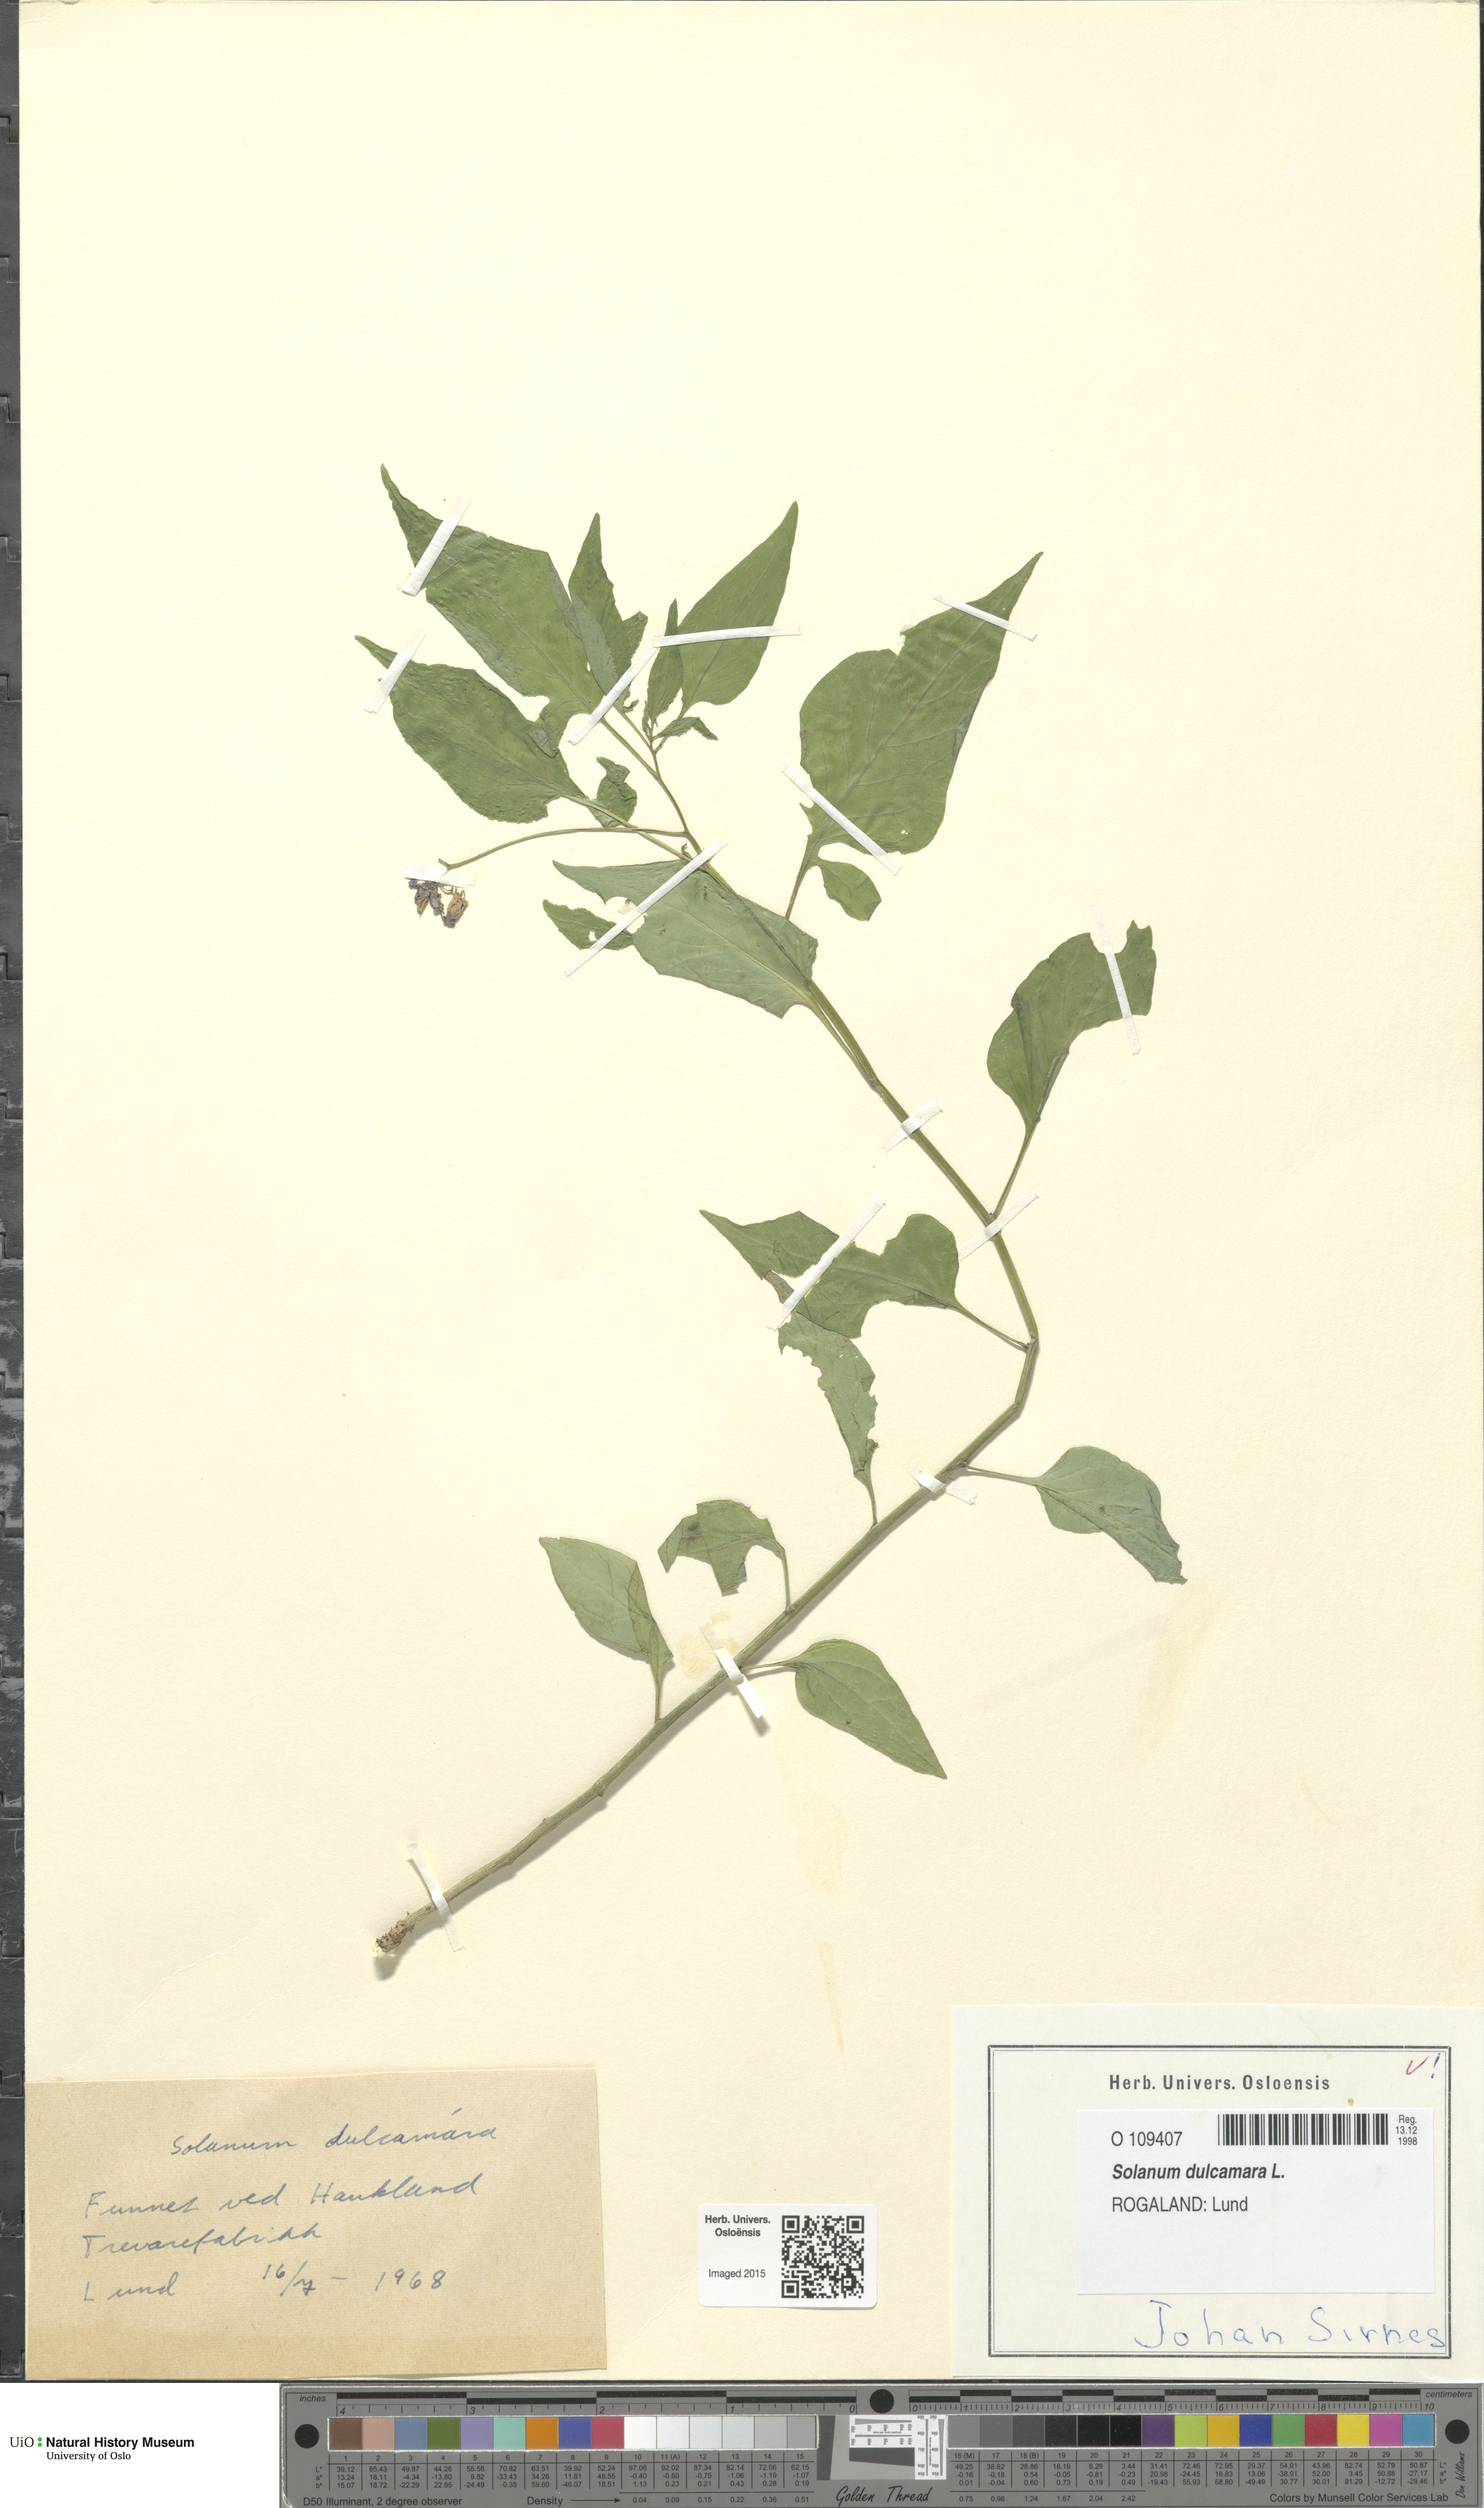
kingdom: Plantae
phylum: Tracheophyta
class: Magnoliopsida
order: Solanales
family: Solanaceae
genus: Solanum
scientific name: Solanum dulcamara
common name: Climbing nightshade
